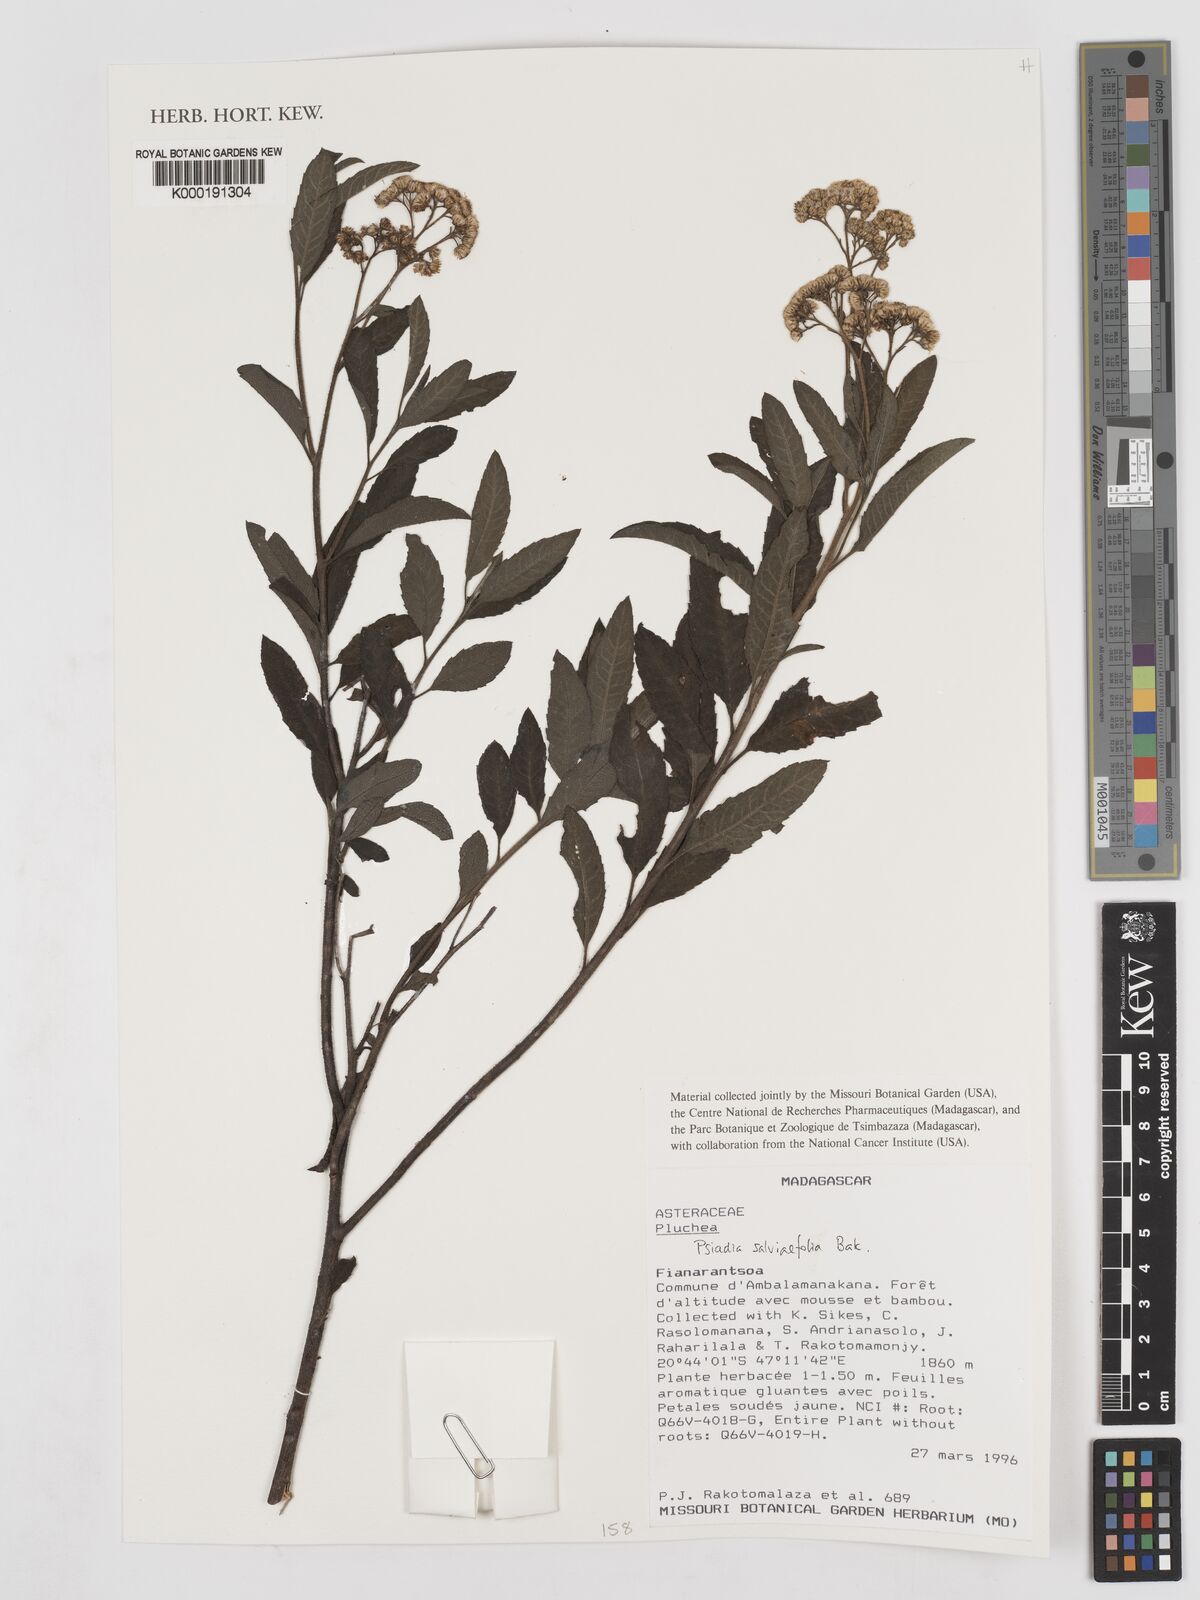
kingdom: Plantae
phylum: Tracheophyta
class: Magnoliopsida
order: Asterales
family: Asteraceae
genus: Psiadia
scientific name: Psiadia
